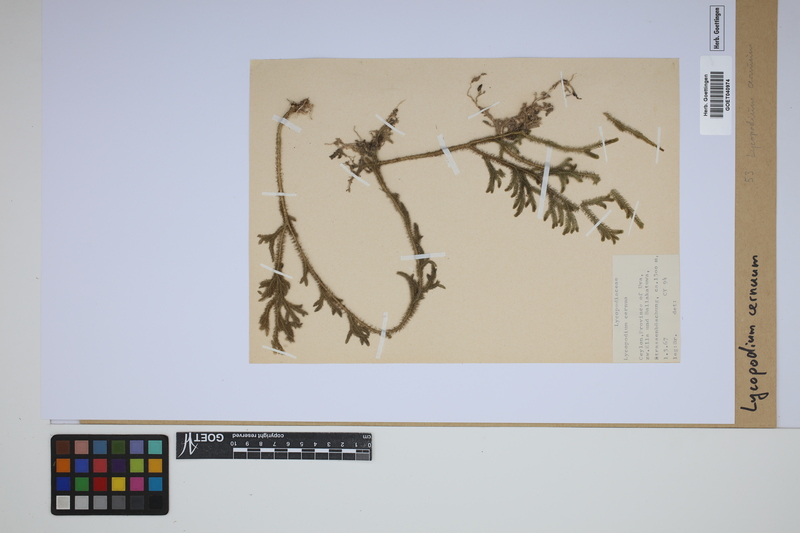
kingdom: Plantae
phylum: Tracheophyta
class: Lycopodiopsida
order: Lycopodiales
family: Lycopodiaceae
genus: Palhinhaea
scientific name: Palhinhaea cernua
